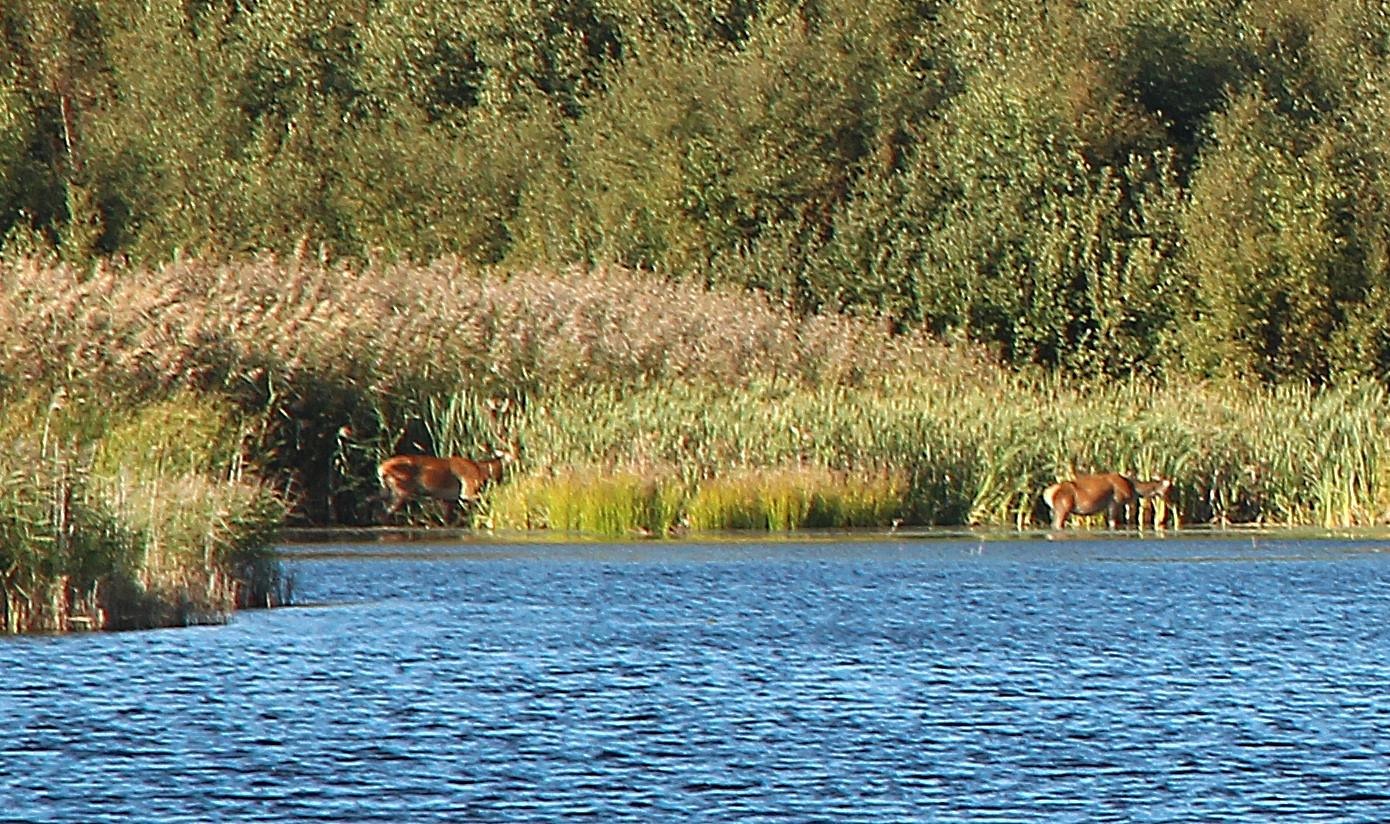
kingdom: Animalia
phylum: Chordata
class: Mammalia
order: Artiodactyla
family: Cervidae
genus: Cervus
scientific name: Cervus elaphus
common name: Krondyr
